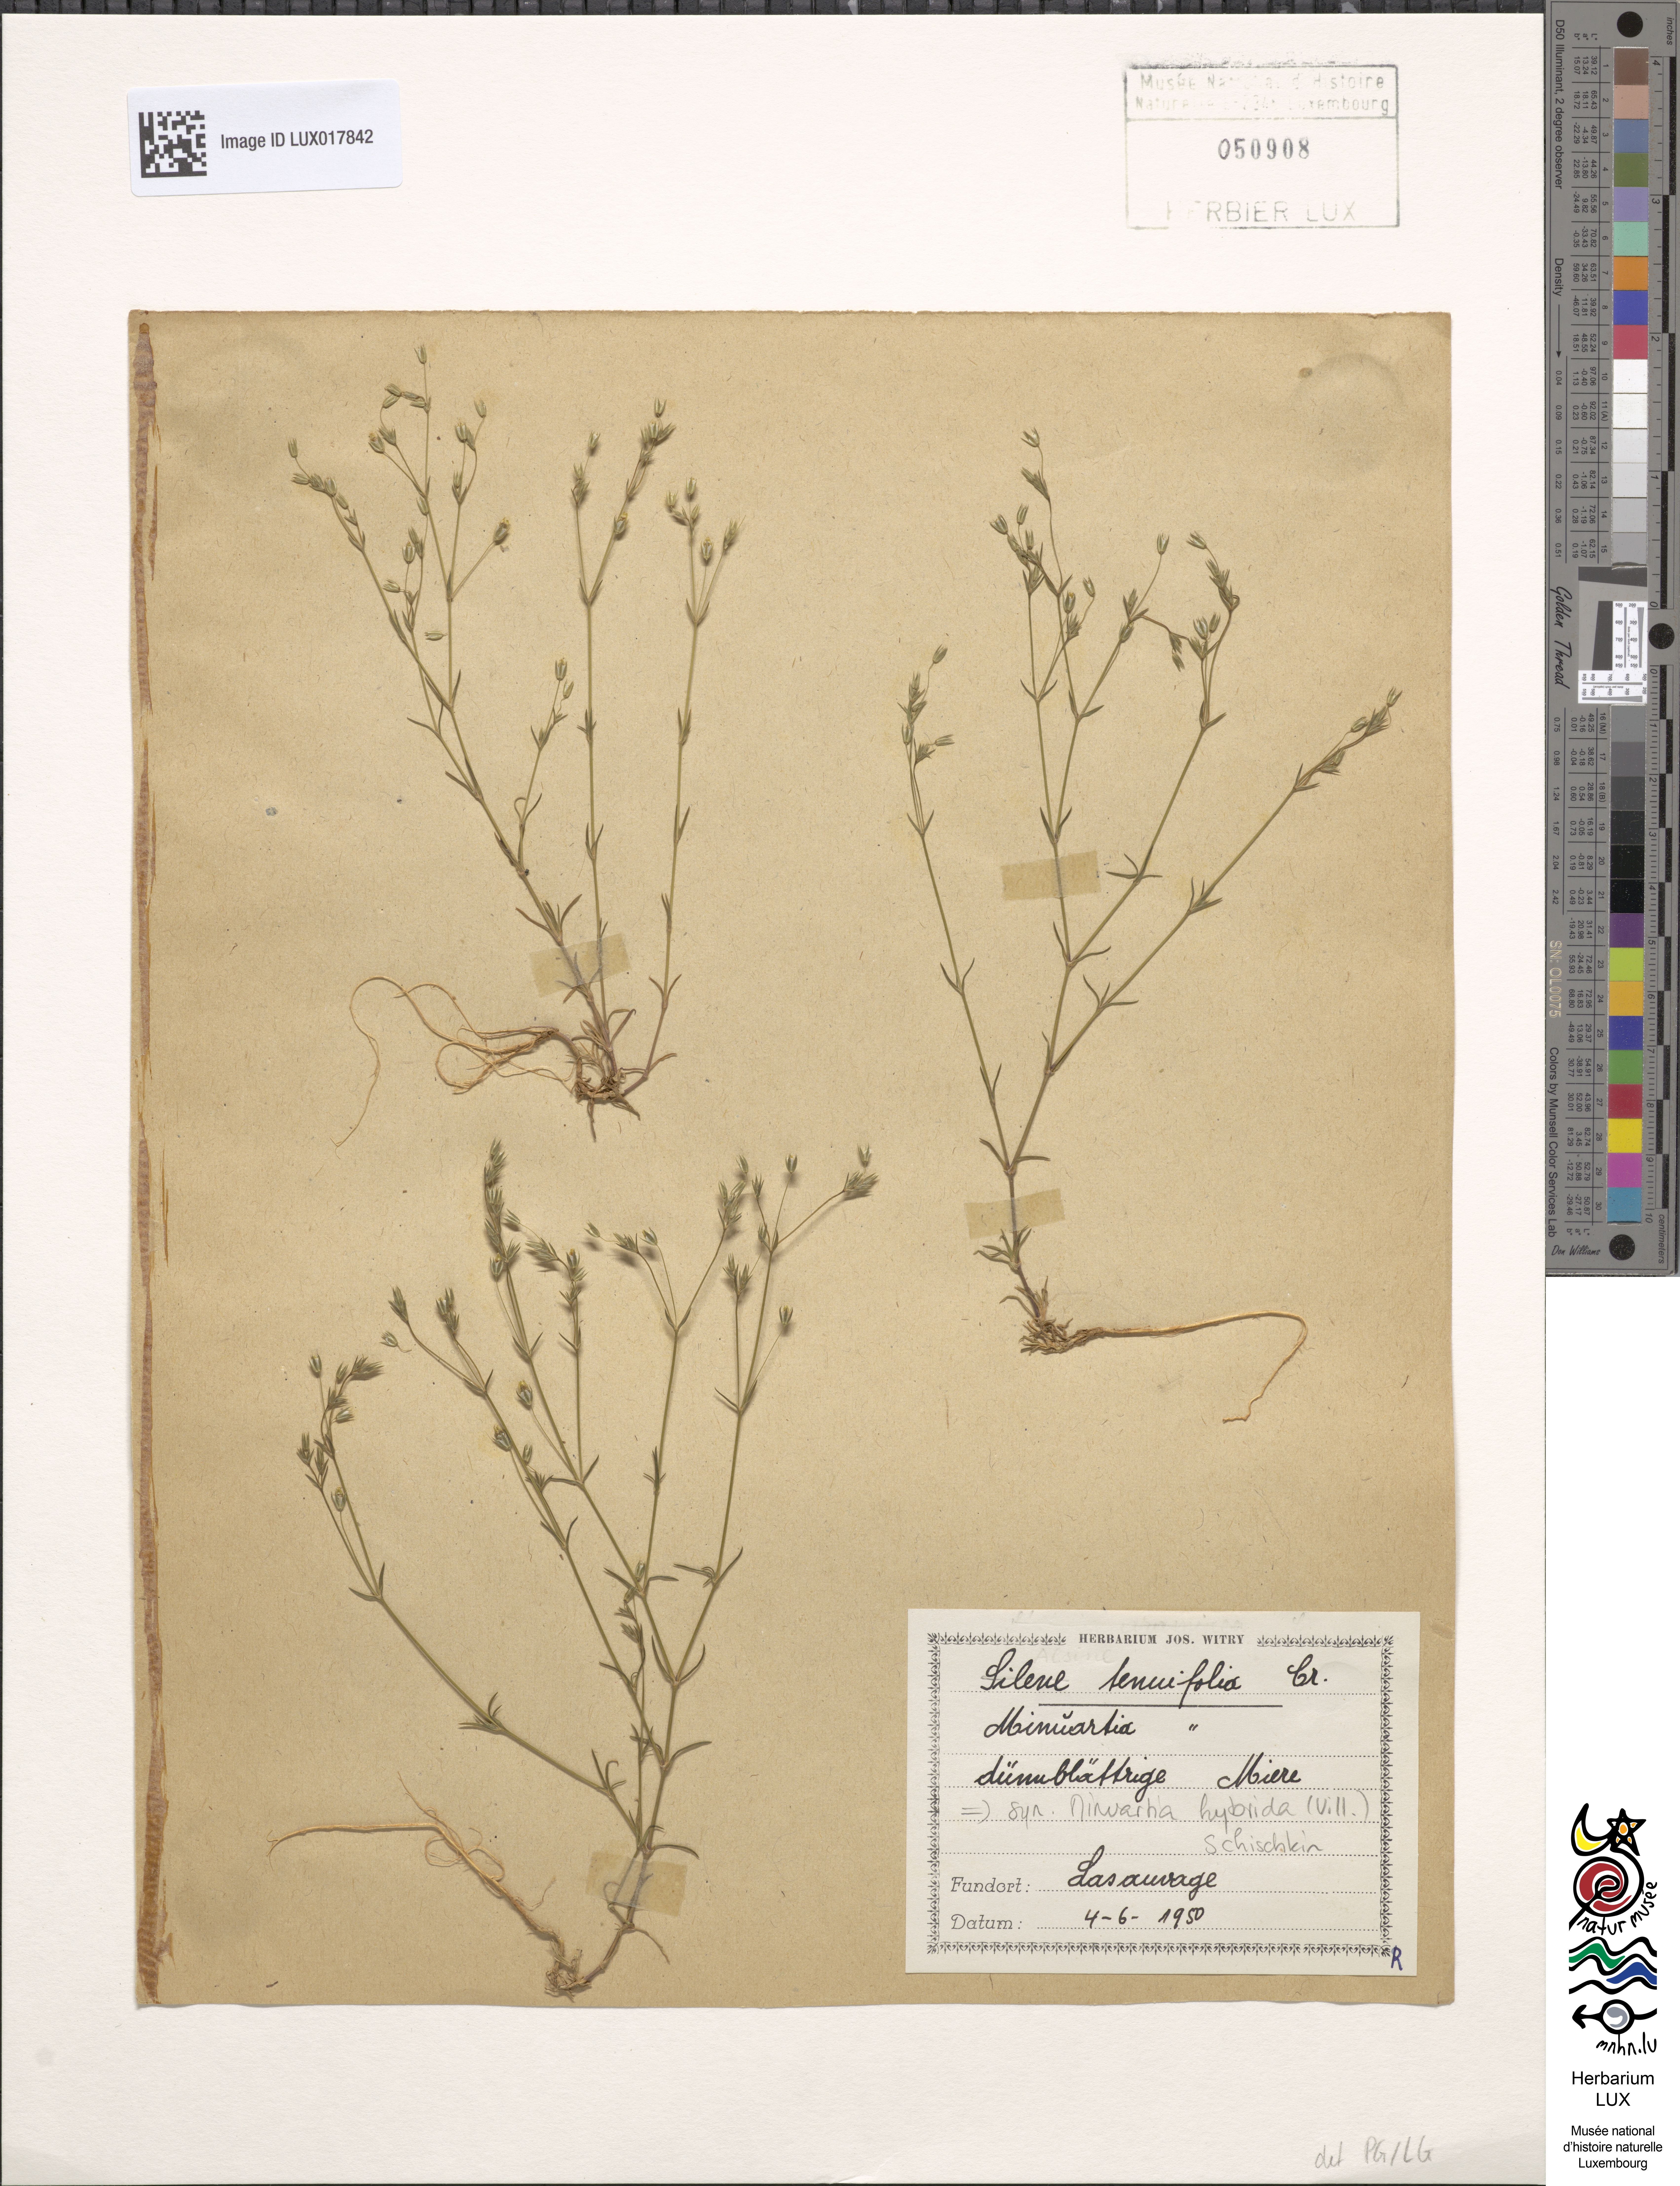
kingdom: Plantae
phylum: Tracheophyta
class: Magnoliopsida
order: Caryophyllales
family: Caryophyllaceae
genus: Sabulina
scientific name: Sabulina tenuifolia
